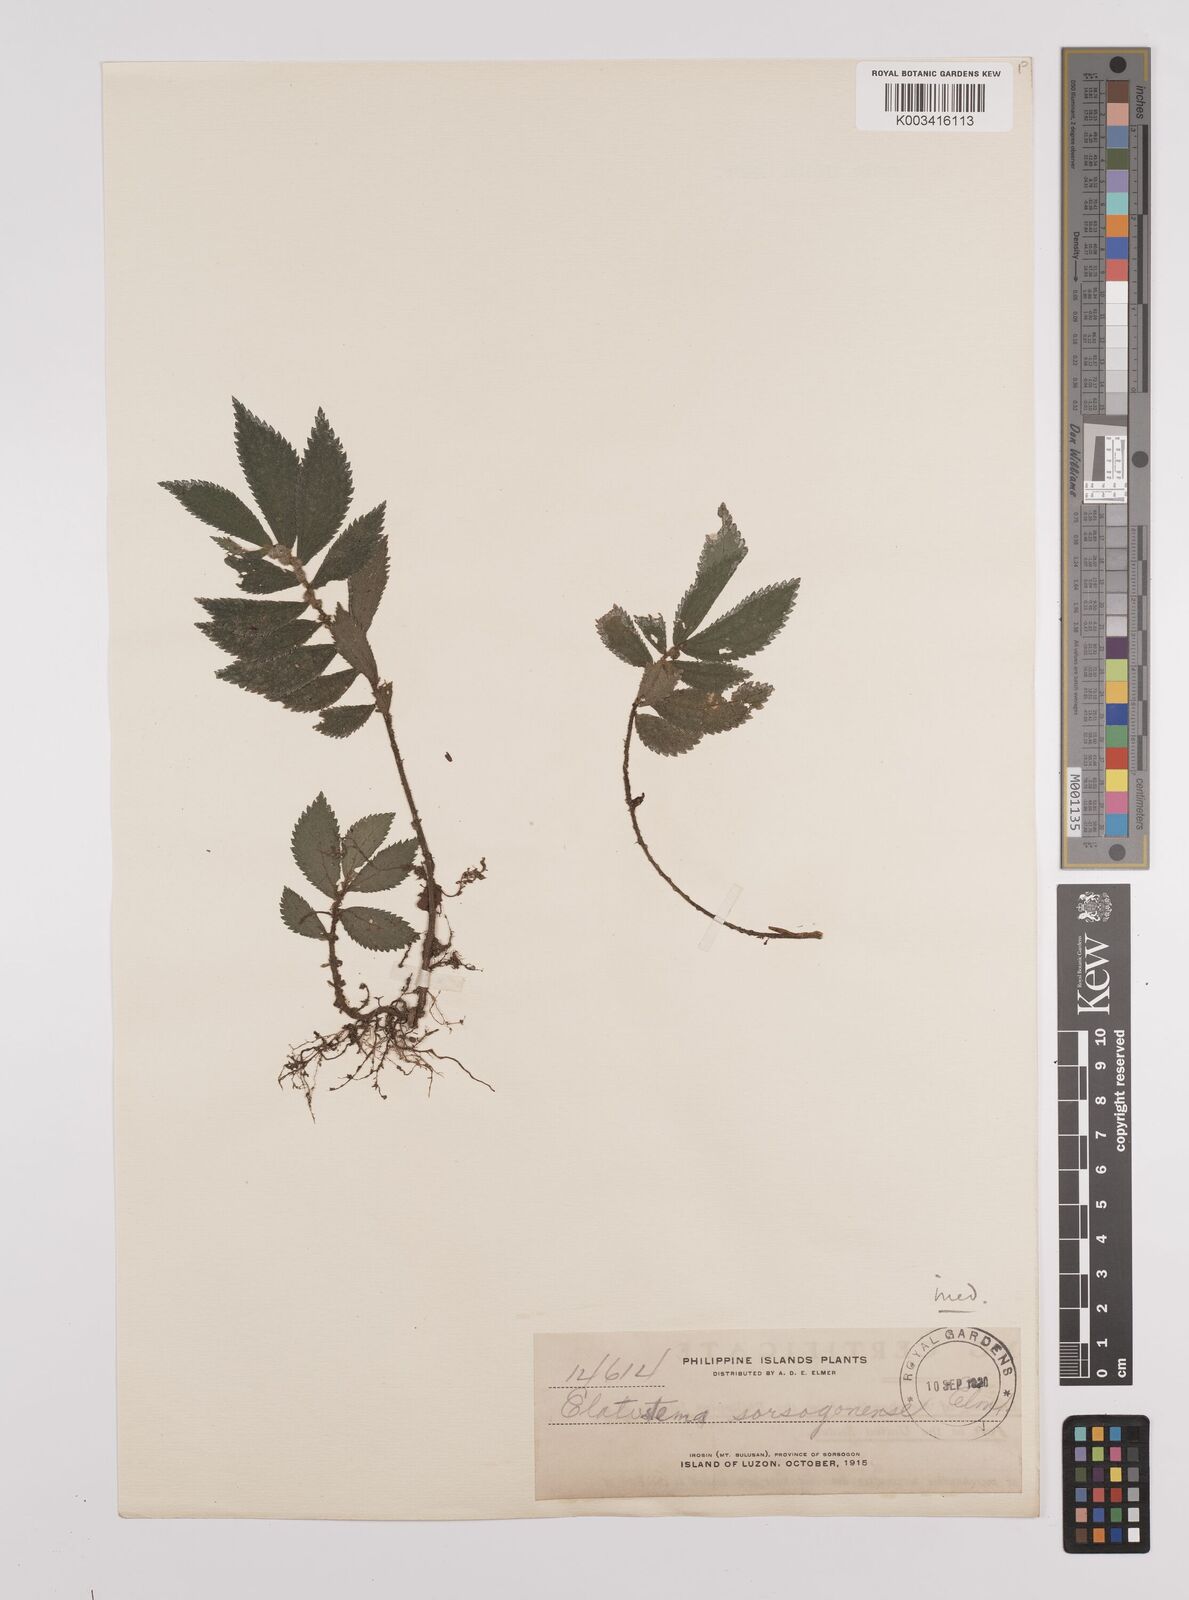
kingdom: Plantae
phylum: Tracheophyta
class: Magnoliopsida
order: Rosales
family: Urticaceae
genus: Elatostema
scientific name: Elatostema sorsogonense
